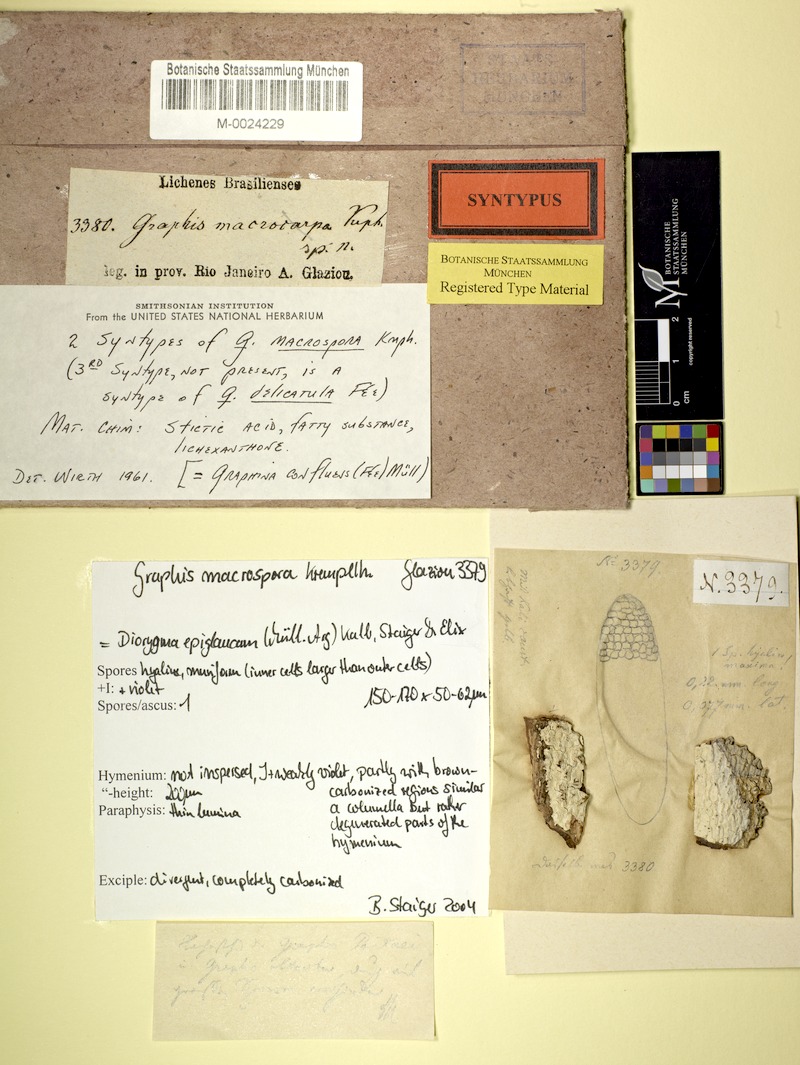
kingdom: Fungi
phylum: Ascomycota
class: Lecanoromycetes
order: Ostropales
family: Graphidaceae
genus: Diorygma
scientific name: Diorygma epiglaucum
